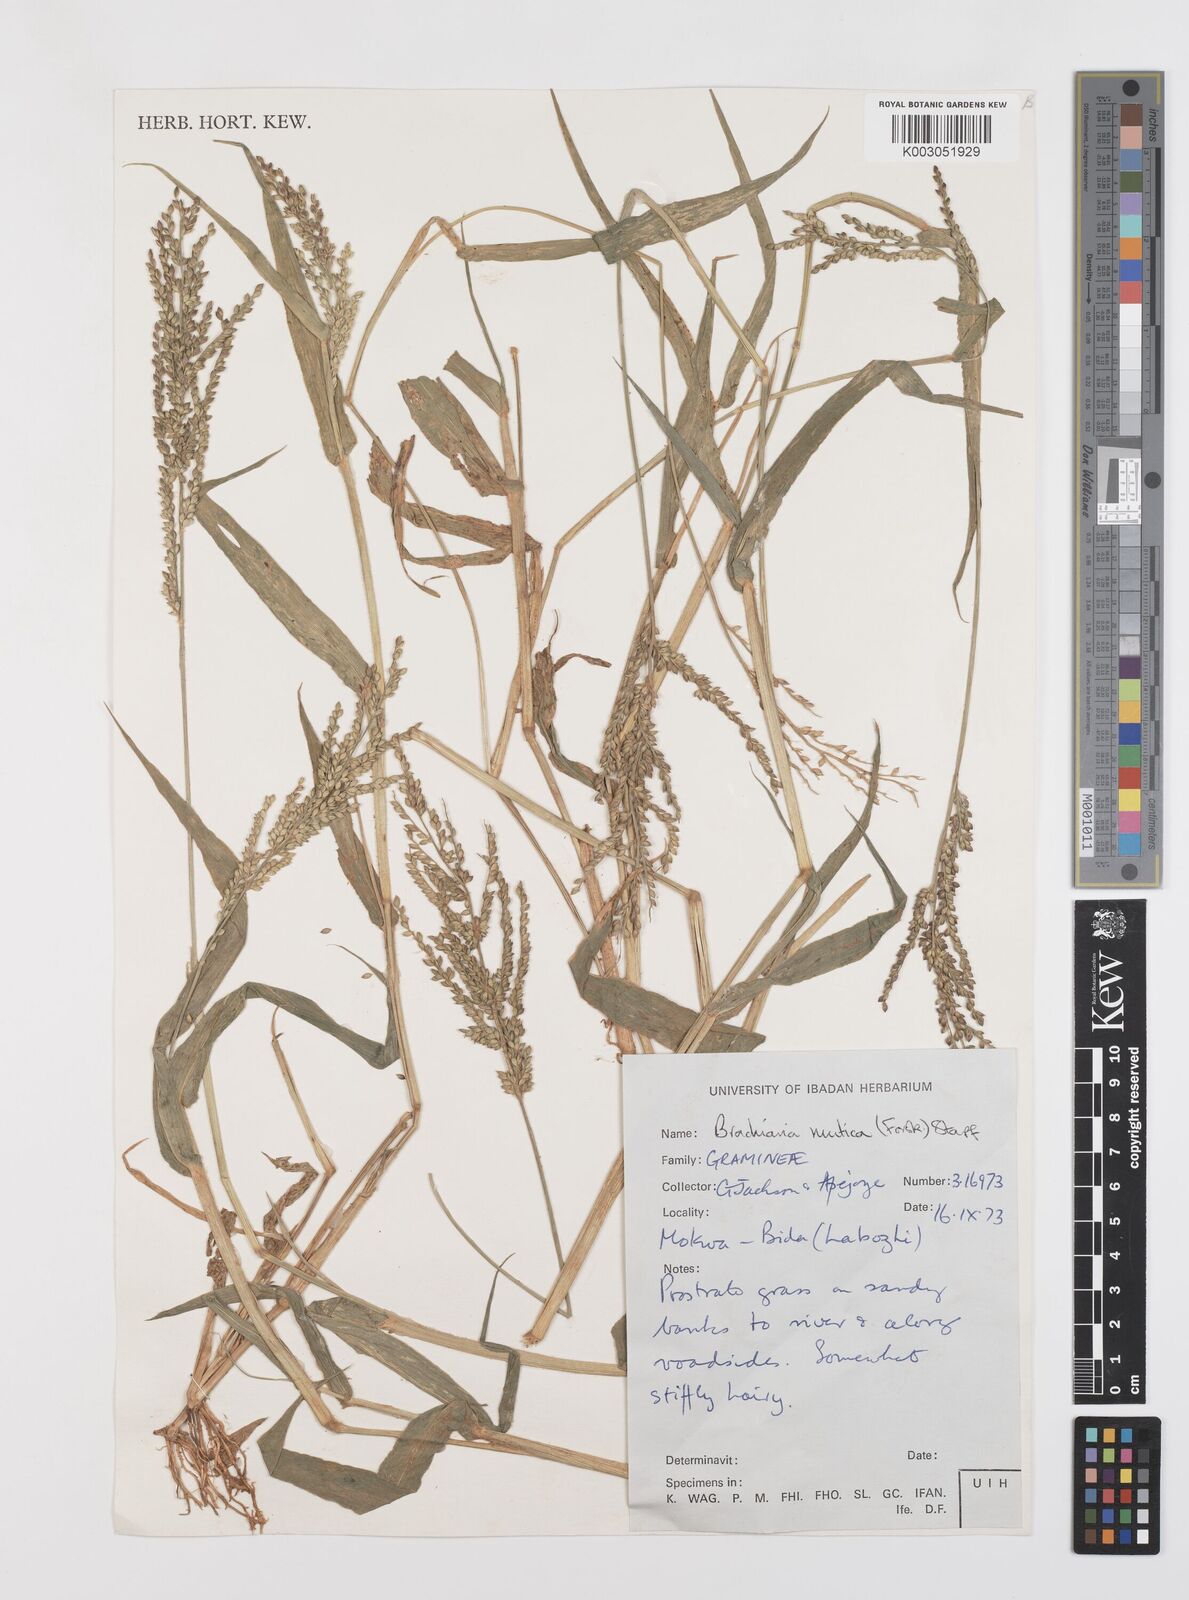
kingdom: Plantae
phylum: Tracheophyta
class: Liliopsida
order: Poales
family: Poaceae
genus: Urochloa
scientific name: Urochloa lata
